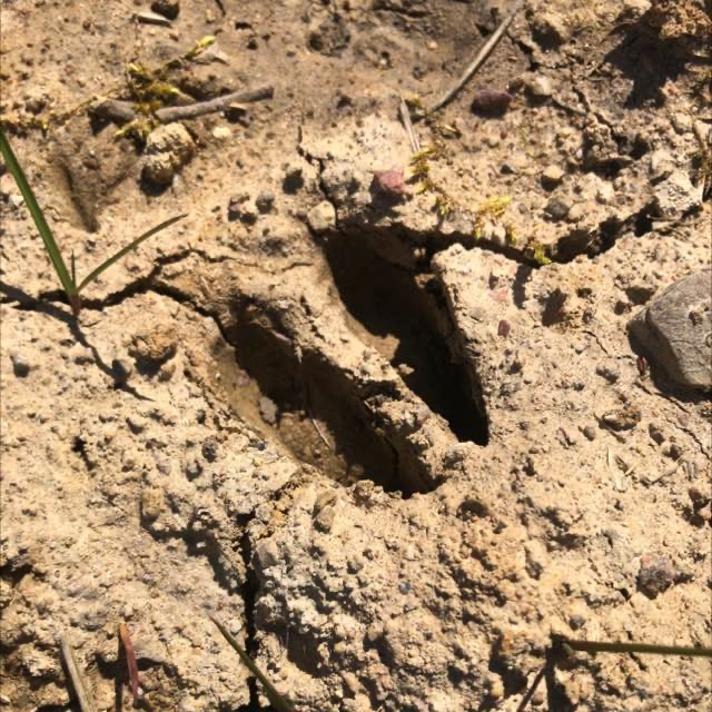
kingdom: Animalia
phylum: Chordata
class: Mammalia
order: Artiodactyla
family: Cervidae
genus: Capreolus
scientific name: Capreolus capreolus
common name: Rådyr
